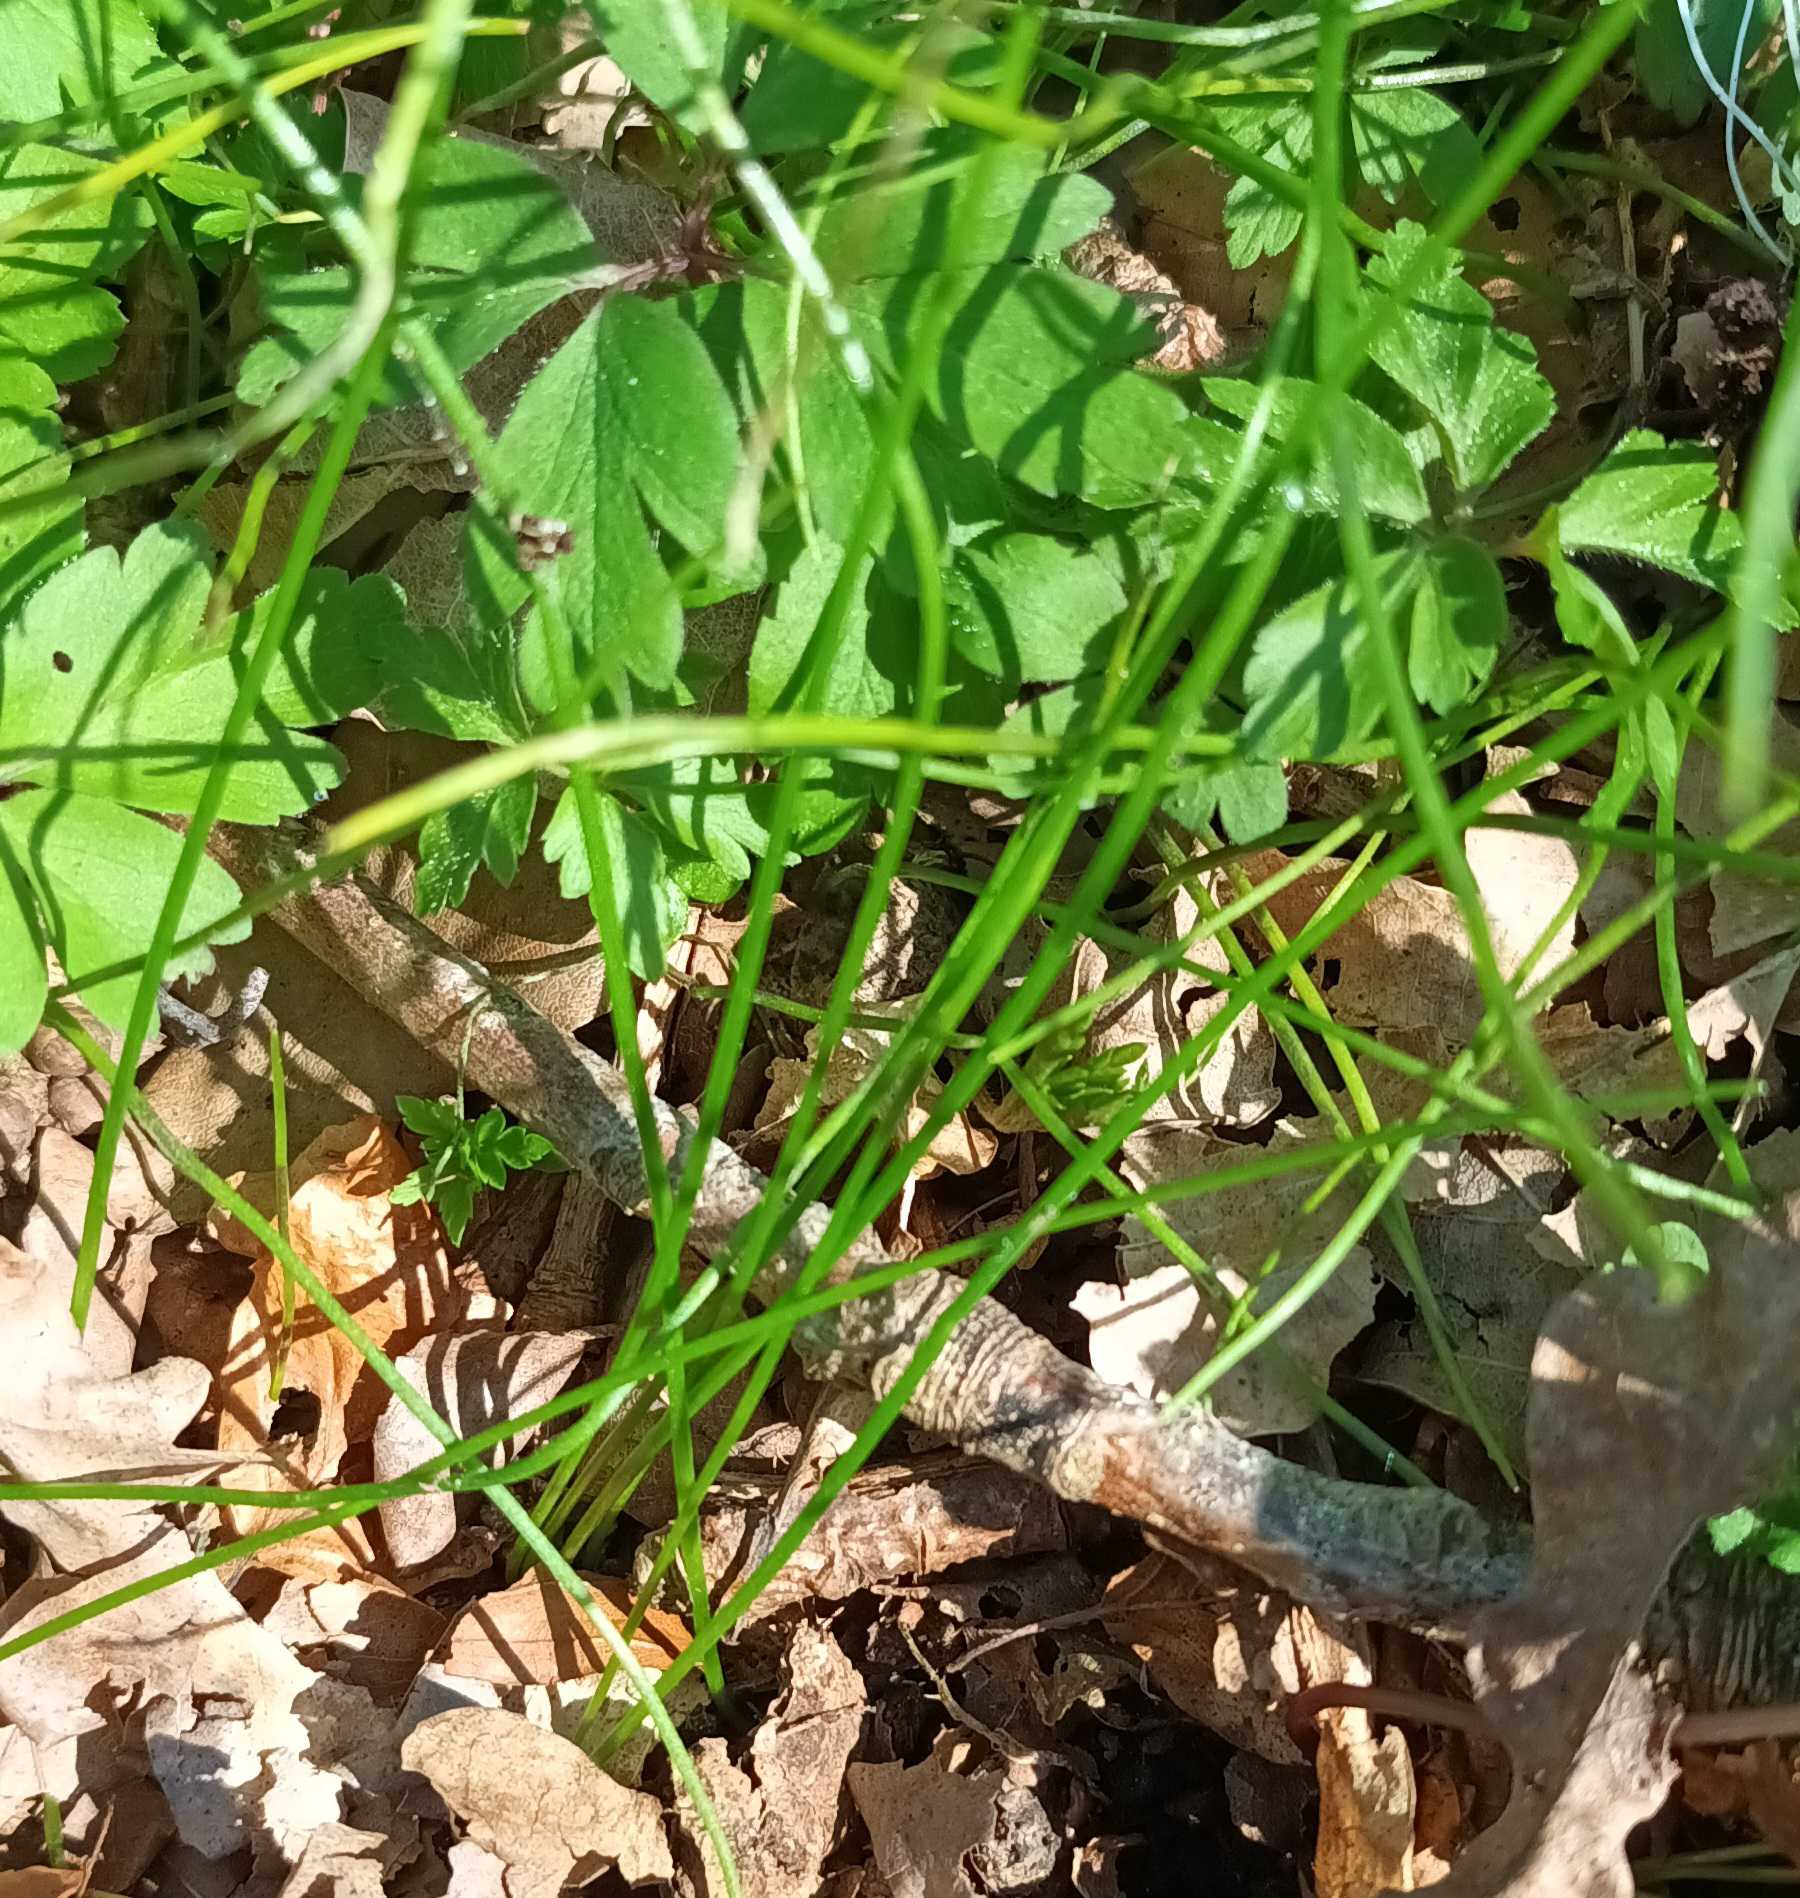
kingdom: Plantae
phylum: Tracheophyta
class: Liliopsida
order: Liliales
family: Liliaceae
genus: Gagea
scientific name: Gagea spathacea
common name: Hylster-guldstjerne
